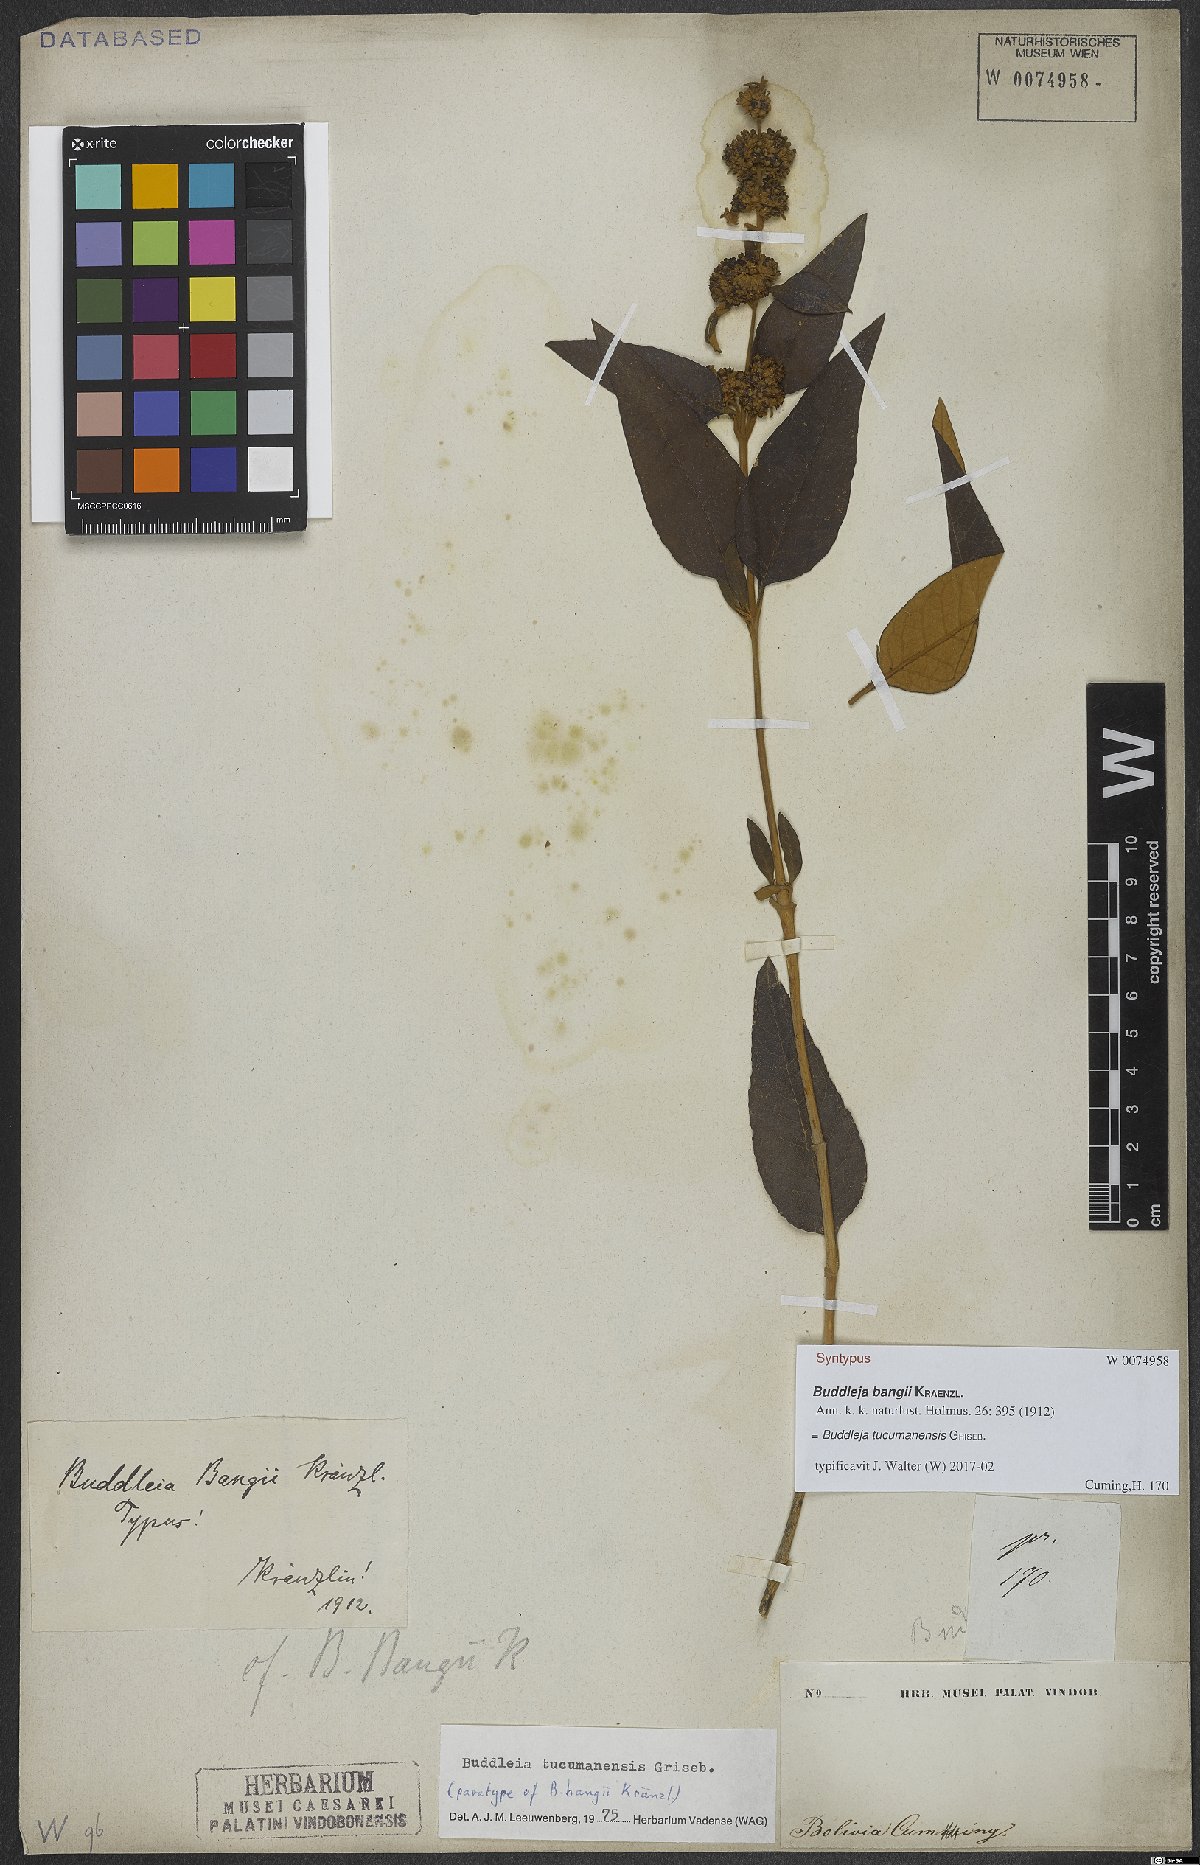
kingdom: Plantae
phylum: Tracheophyta
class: Magnoliopsida
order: Lamiales
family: Scrophulariaceae
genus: Buddleja
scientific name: Buddleja tucumanensis
